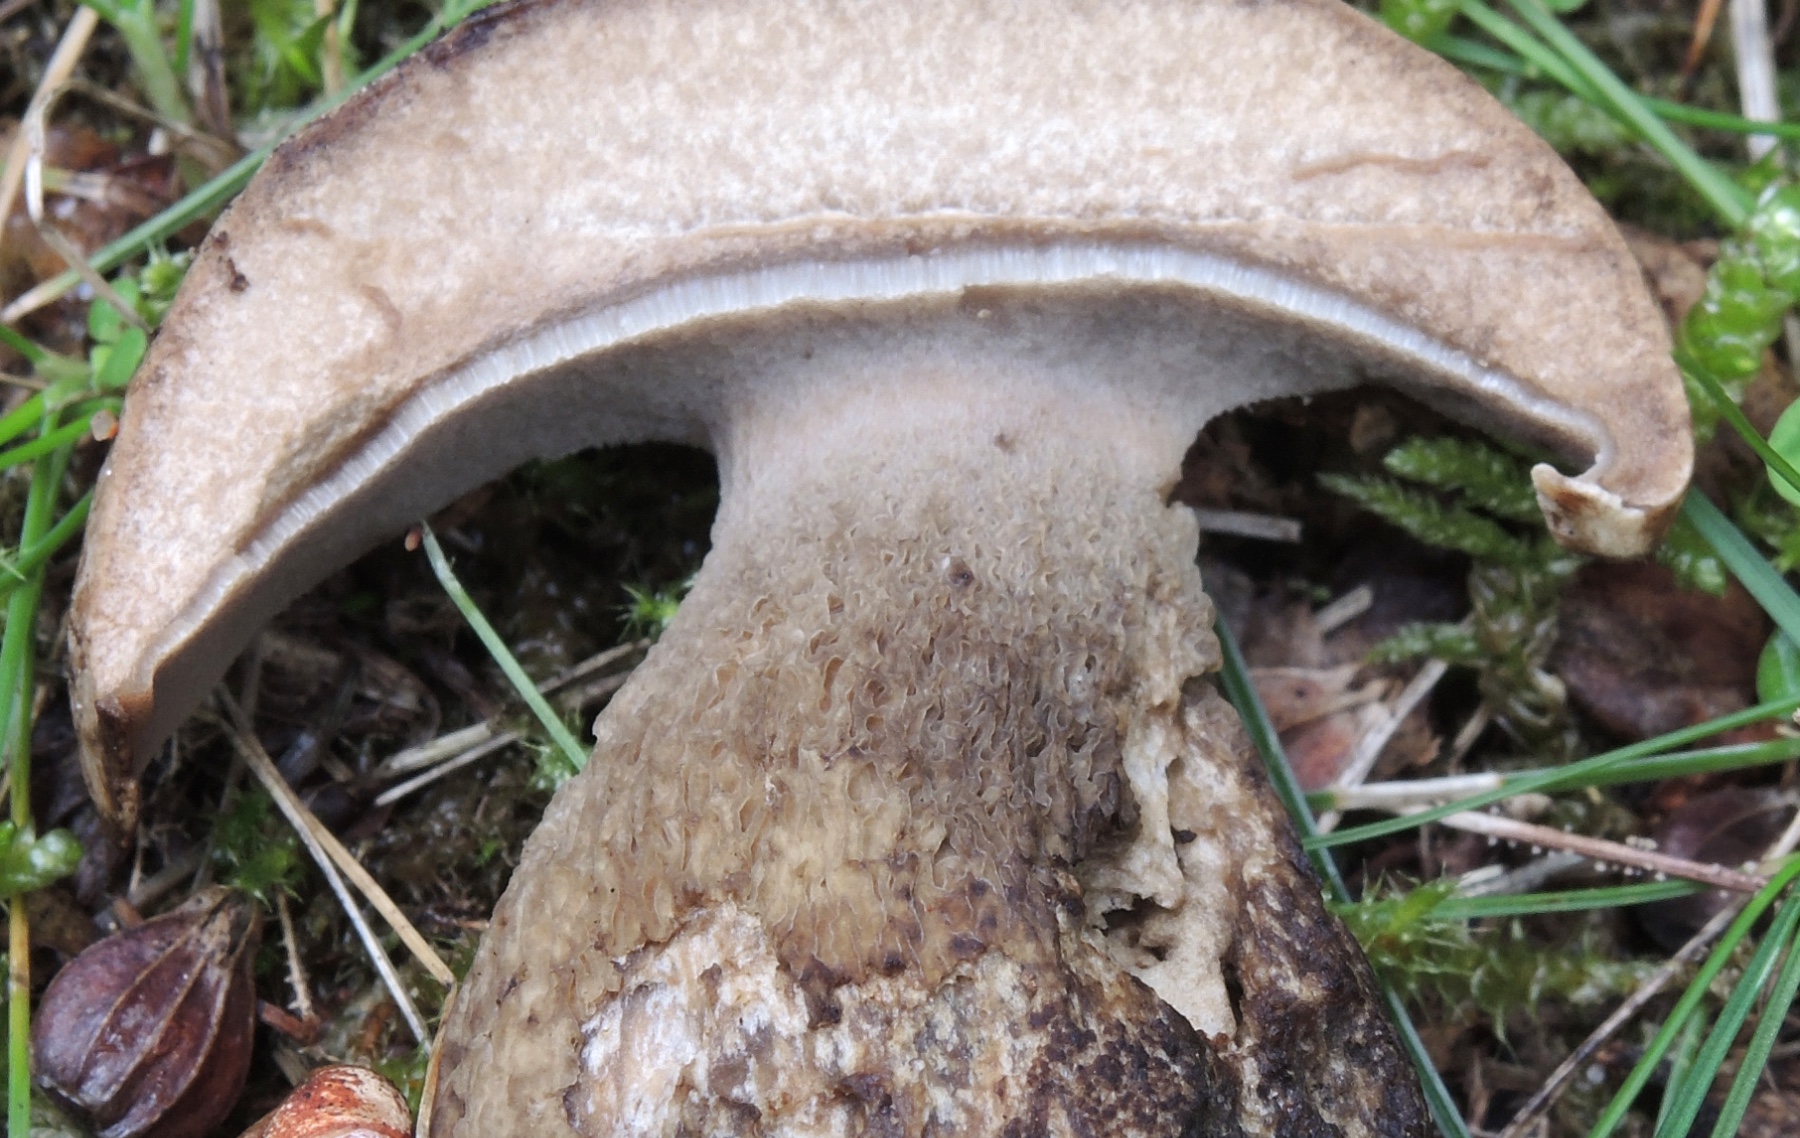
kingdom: Fungi
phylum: Basidiomycota
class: Agaricomycetes
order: Boletales
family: Boletaceae
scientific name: Boletaceae
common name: rørhatfamilien
